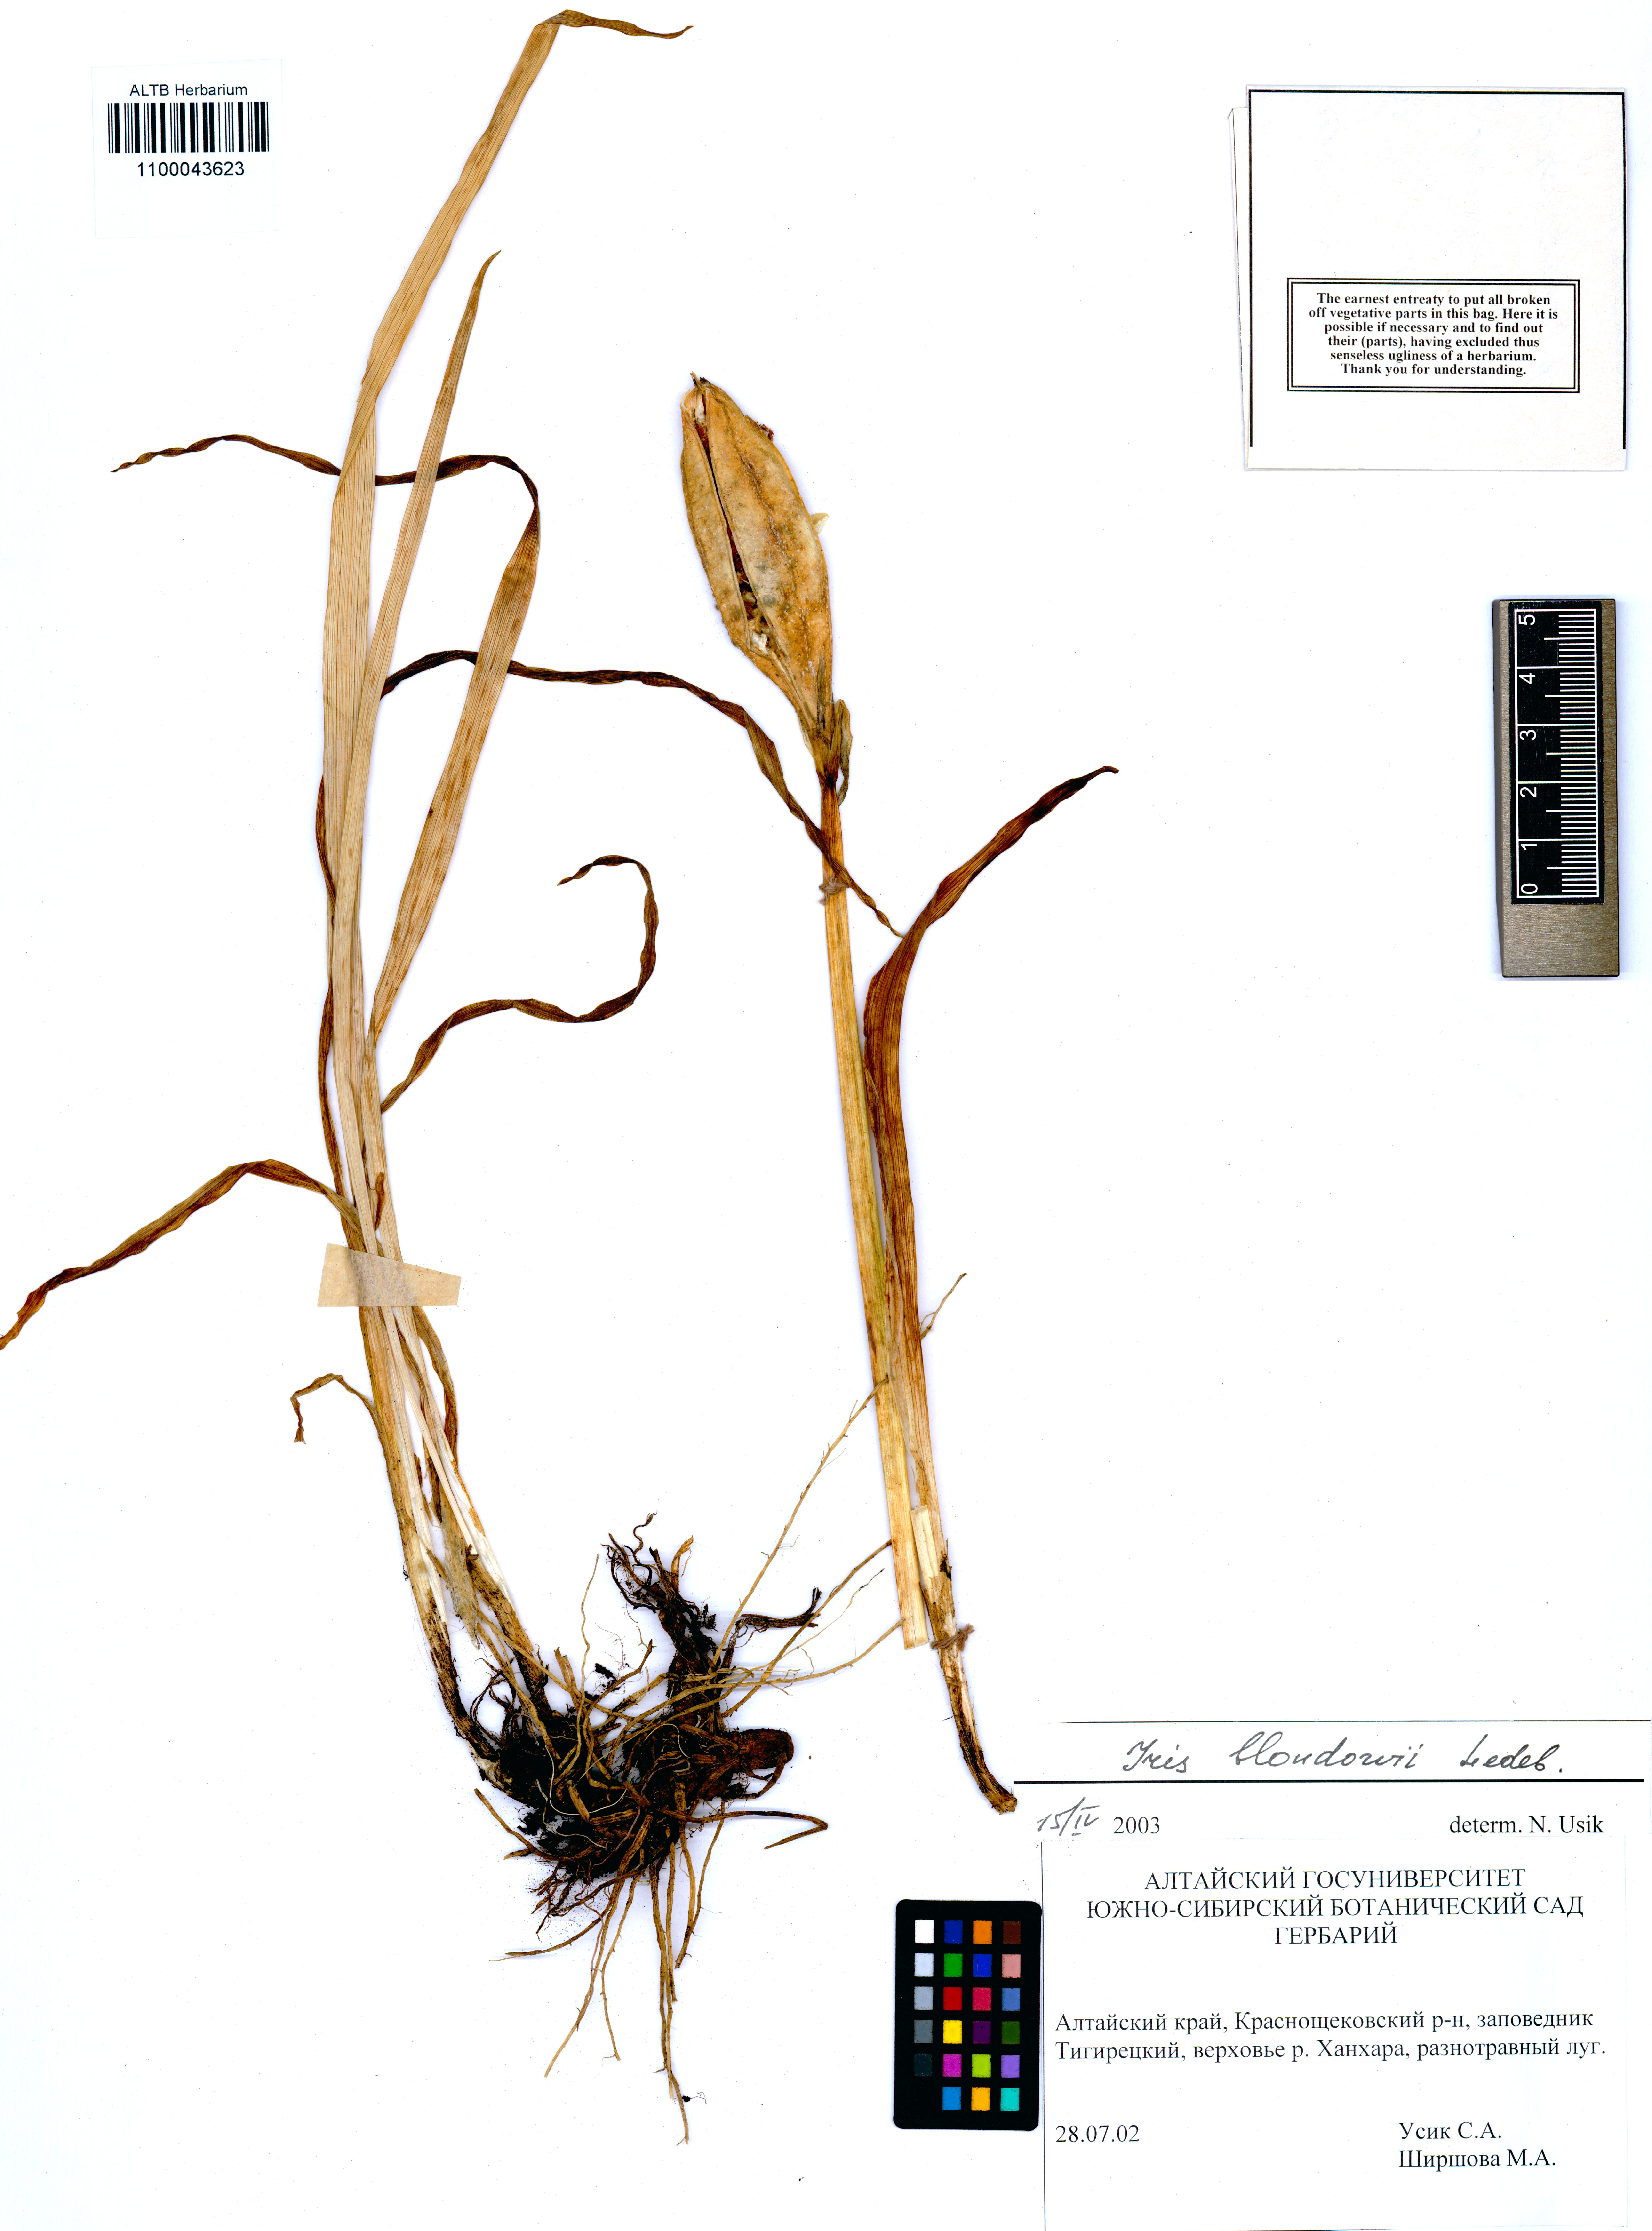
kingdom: Plantae
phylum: Tracheophyta
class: Liliopsida
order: Asparagales
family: Iridaceae
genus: Iris
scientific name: Iris bloudowii
